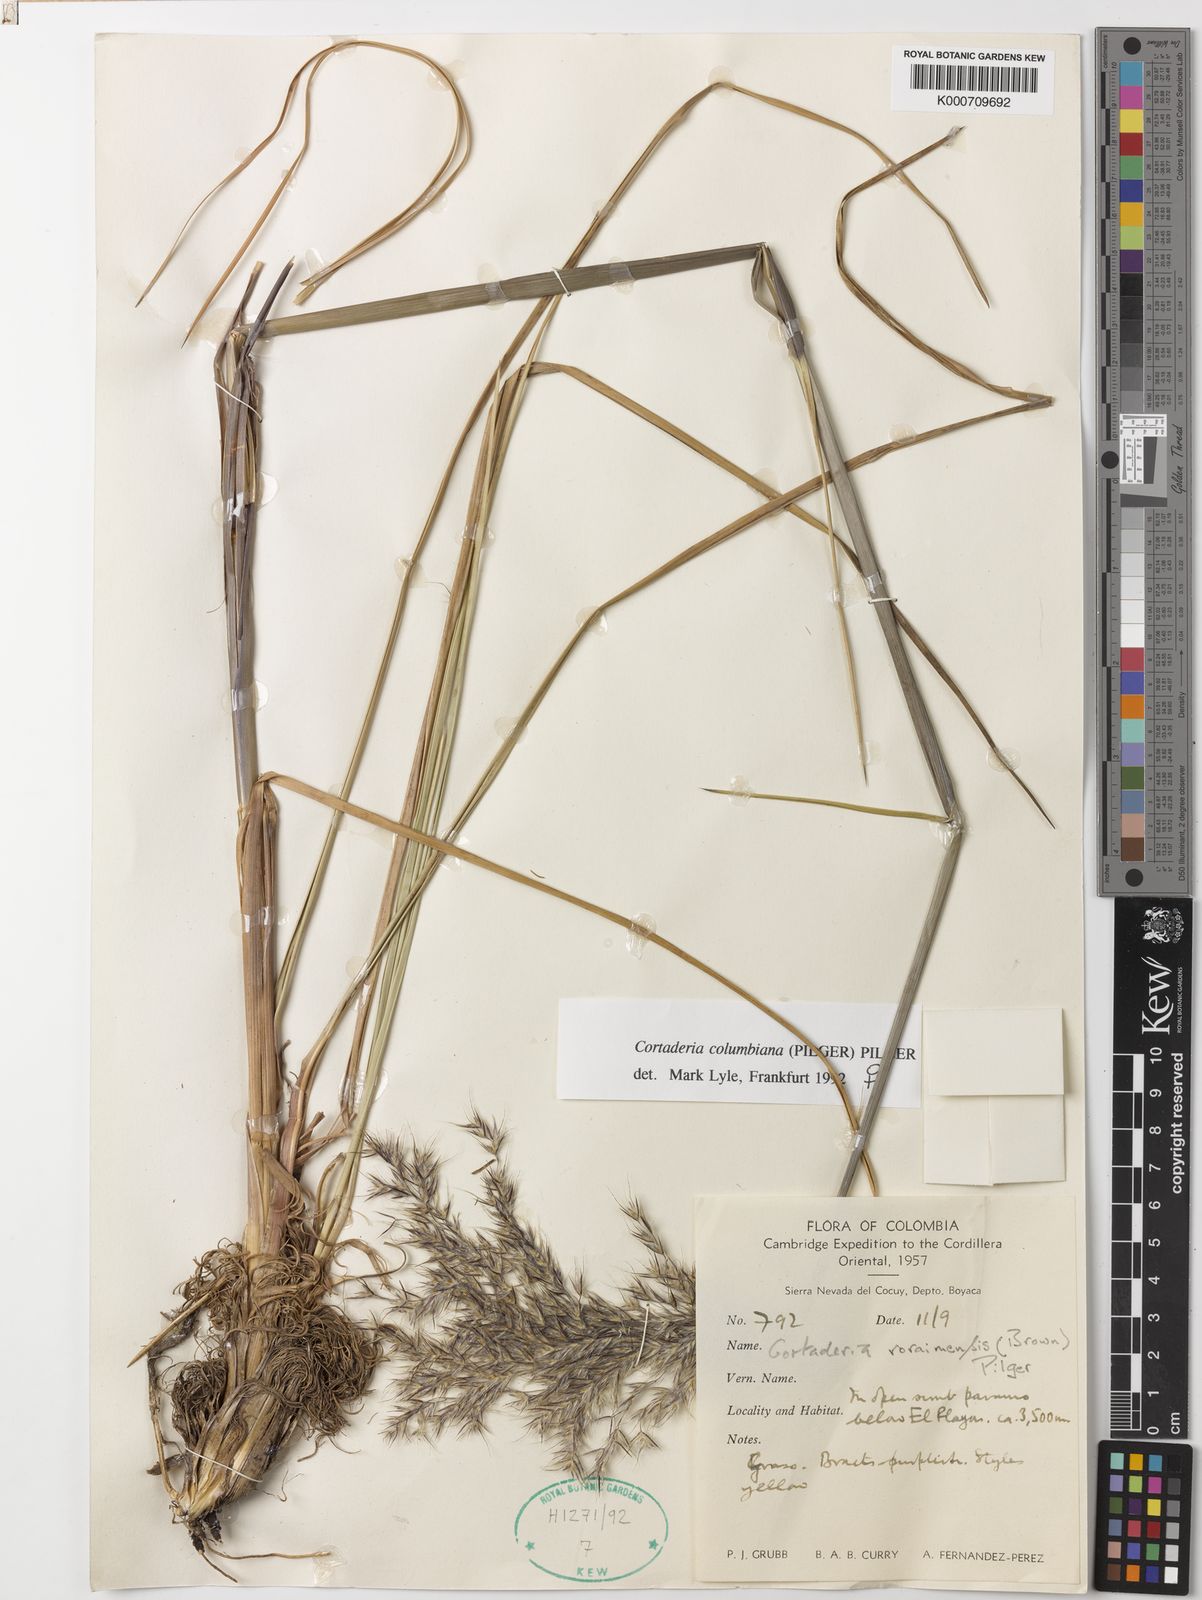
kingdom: Plantae
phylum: Tracheophyta
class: Liliopsida
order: Poales
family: Poaceae
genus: Cortaderia
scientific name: Cortaderia columbiana
